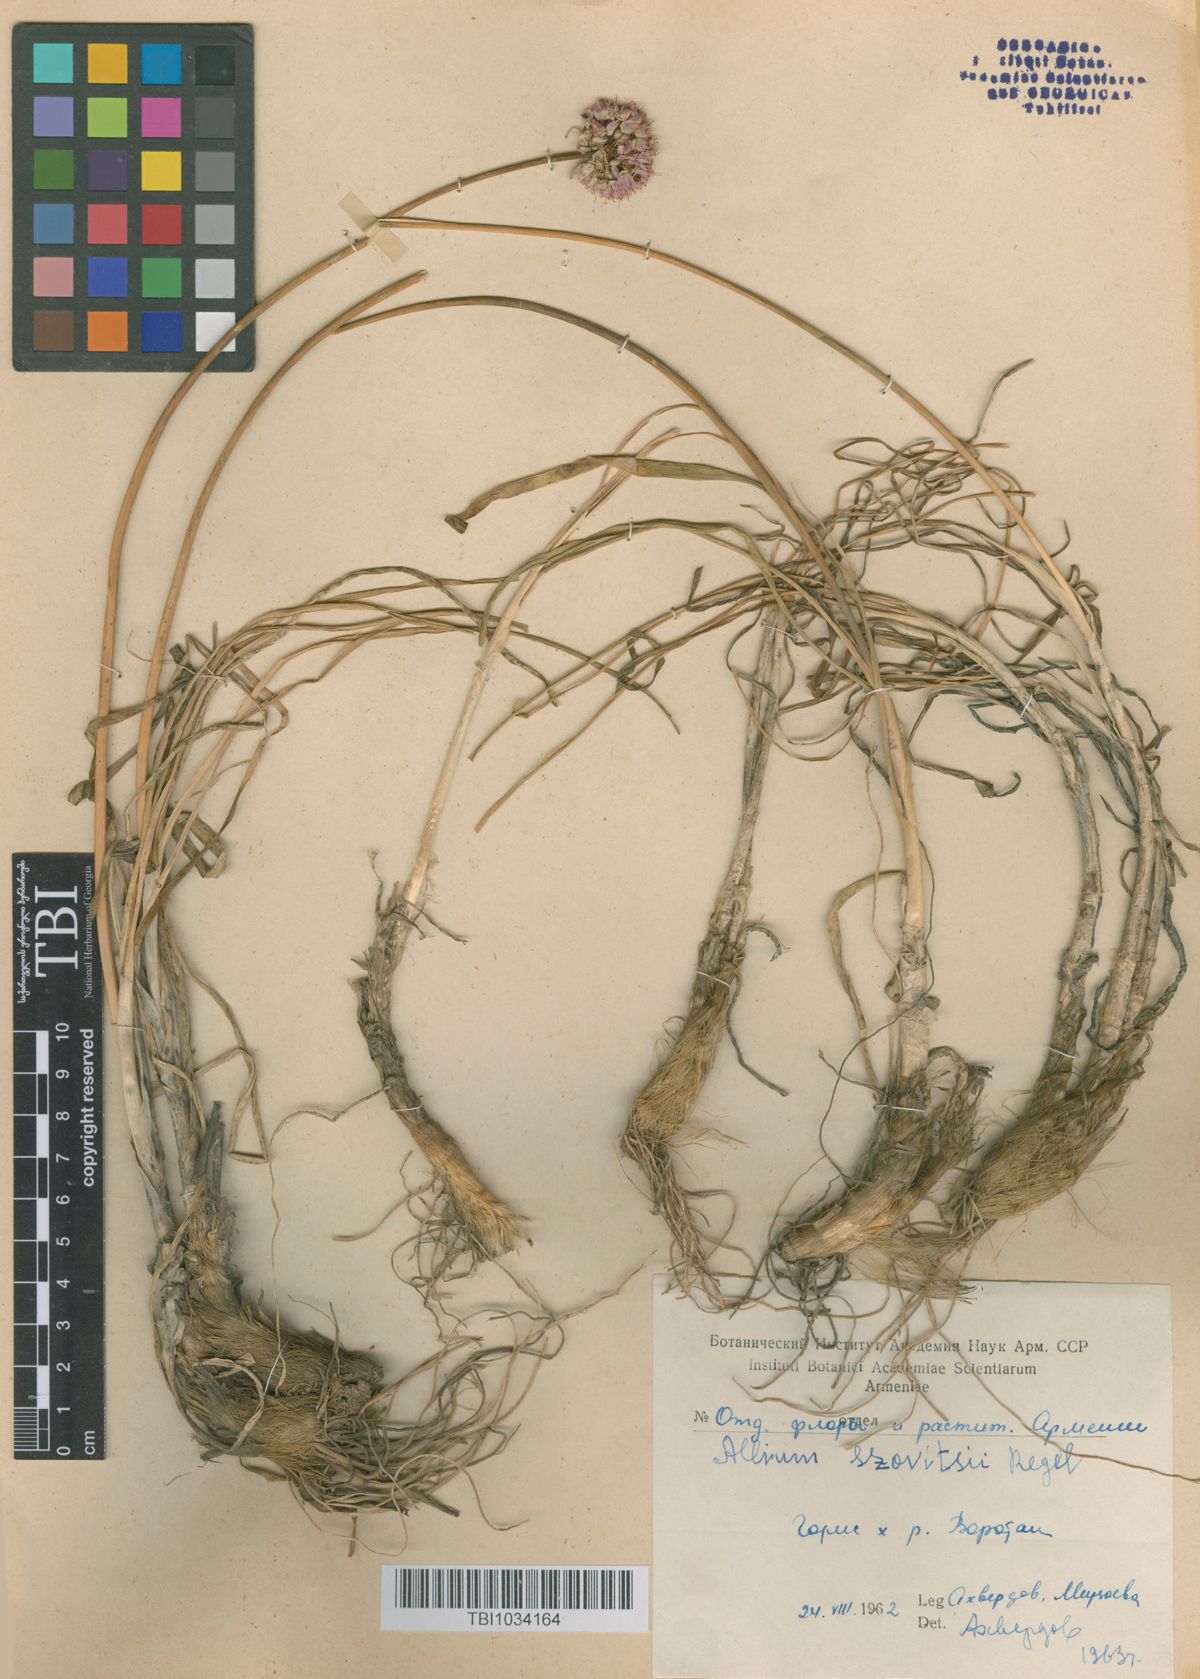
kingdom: Plantae
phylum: Tracheophyta
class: Liliopsida
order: Asparagales
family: Amaryllidaceae
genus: Allium
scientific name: Allium szovitsii
